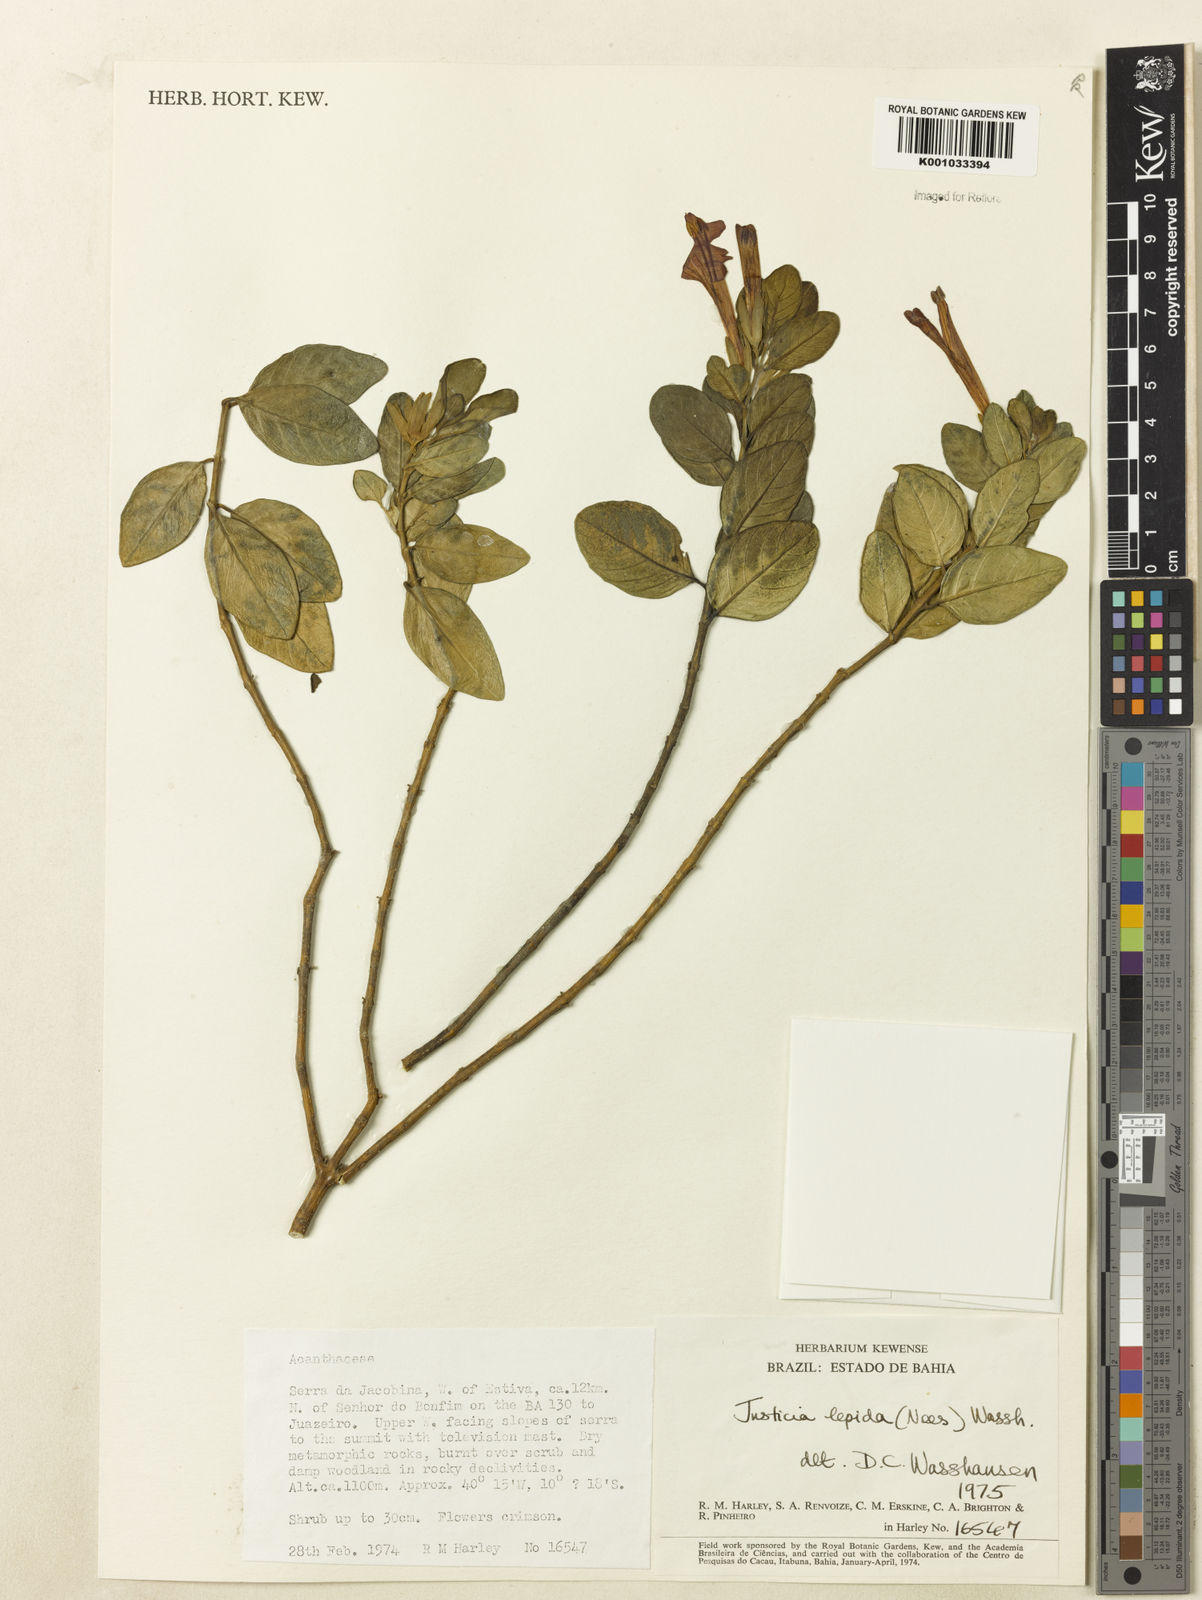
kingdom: Plantae
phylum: Tracheophyta
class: Magnoliopsida
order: Lamiales
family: Acanthaceae
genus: Justicia
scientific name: Justicia lepida
